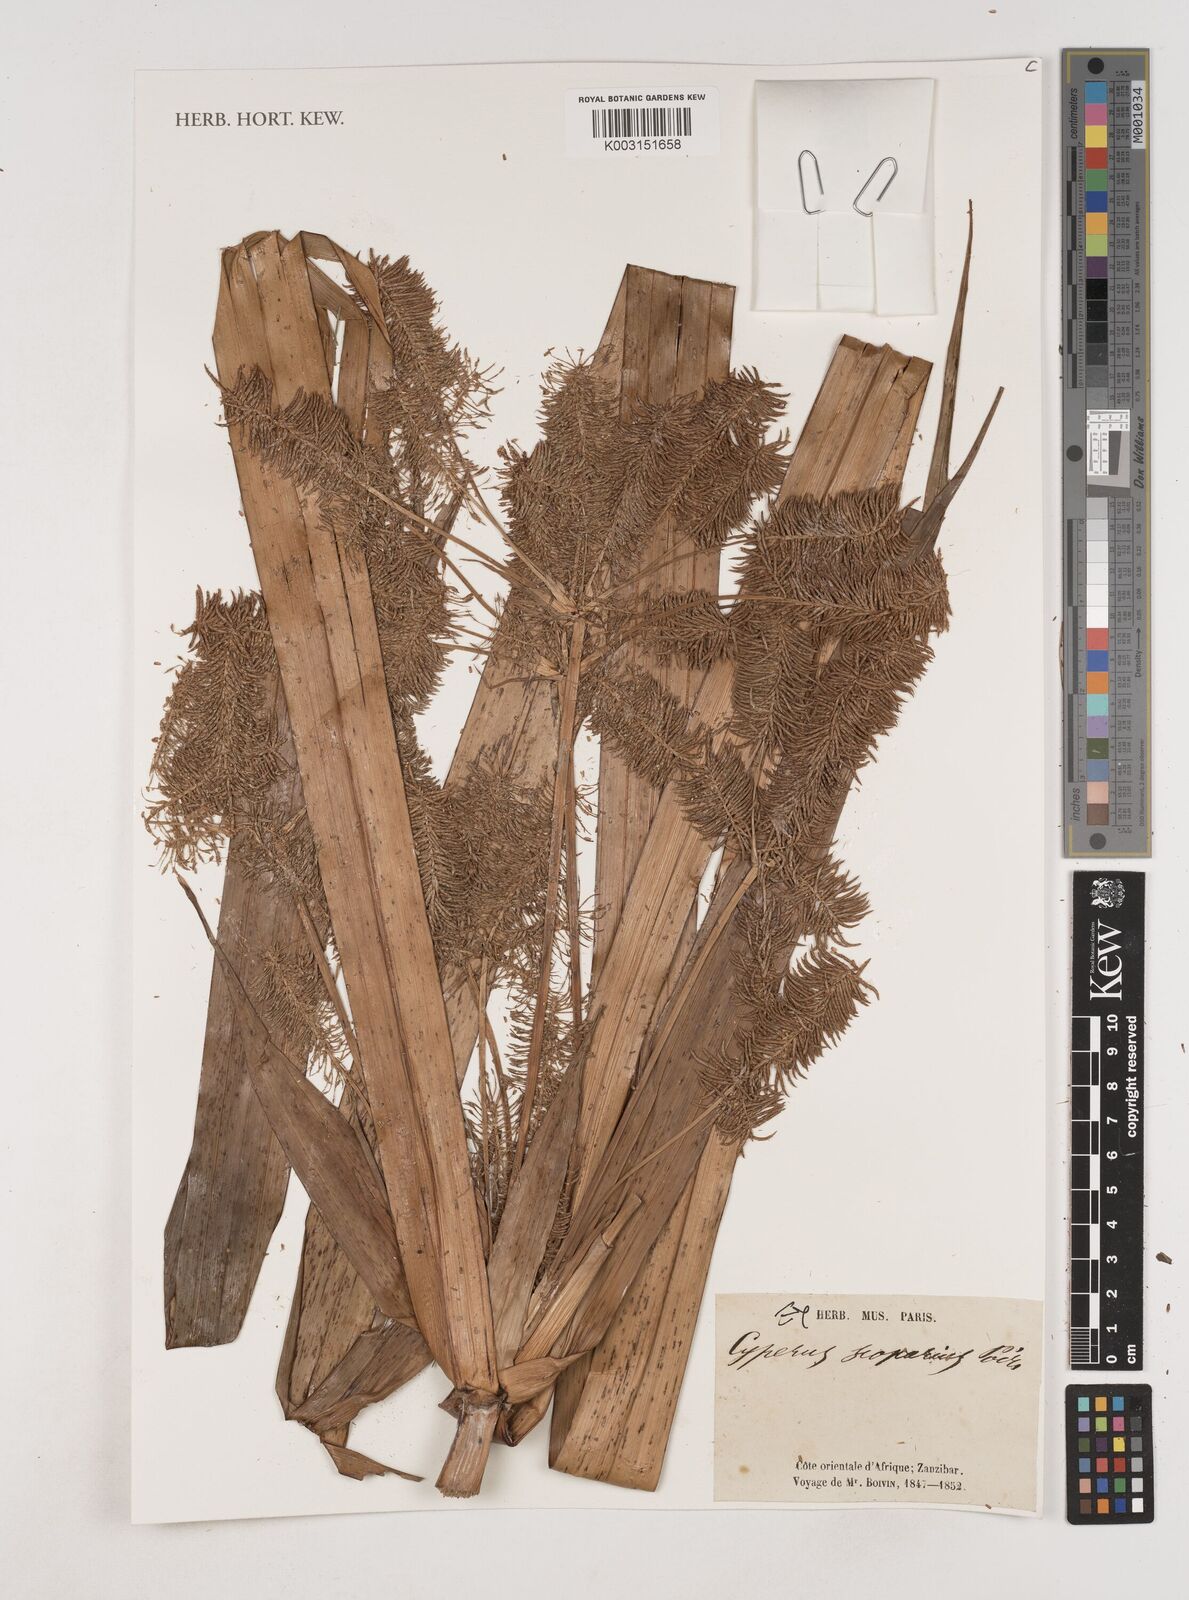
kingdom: Plantae
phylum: Tracheophyta
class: Liliopsida
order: Poales
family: Cyperaceae
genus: Cyperus
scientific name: Cyperus digitatus
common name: Finger flatsedge
